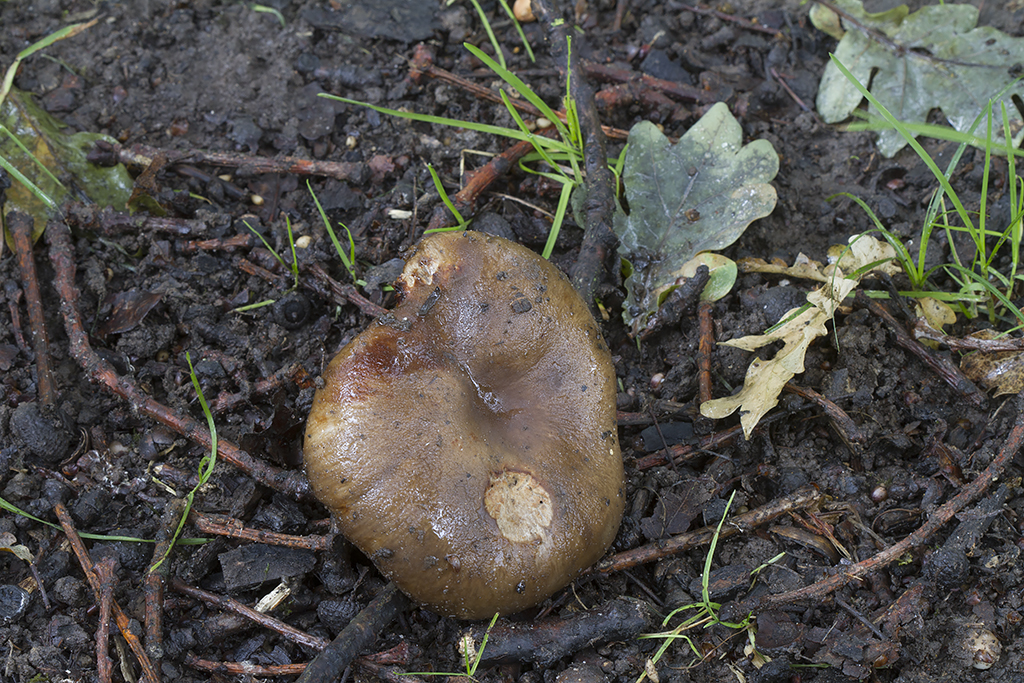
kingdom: Fungi
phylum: Basidiomycota
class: Agaricomycetes
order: Russulales
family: Russulaceae
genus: Russula
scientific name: Russula sororia
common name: brun kam-skørhat
